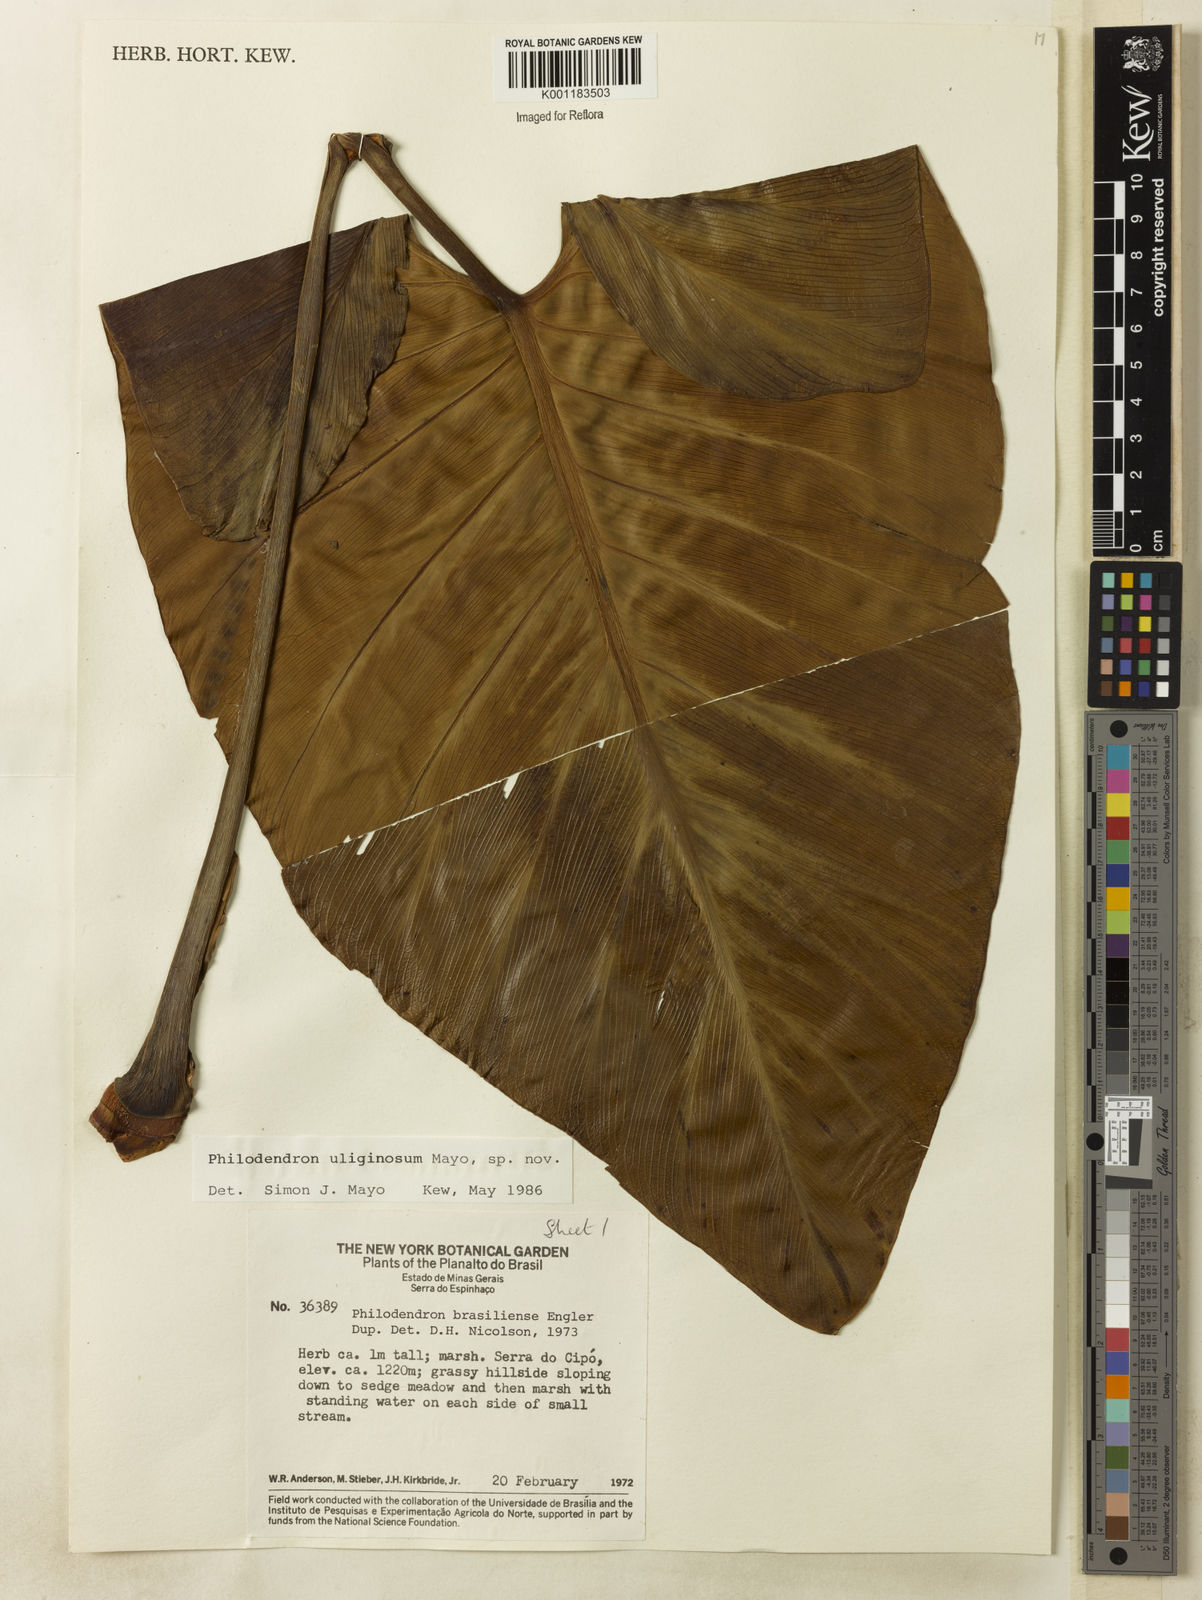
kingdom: Plantae
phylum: Tracheophyta
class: Liliopsida
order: Alismatales
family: Araceae
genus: Thaumatophyllum
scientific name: Thaumatophyllum uliginosum
